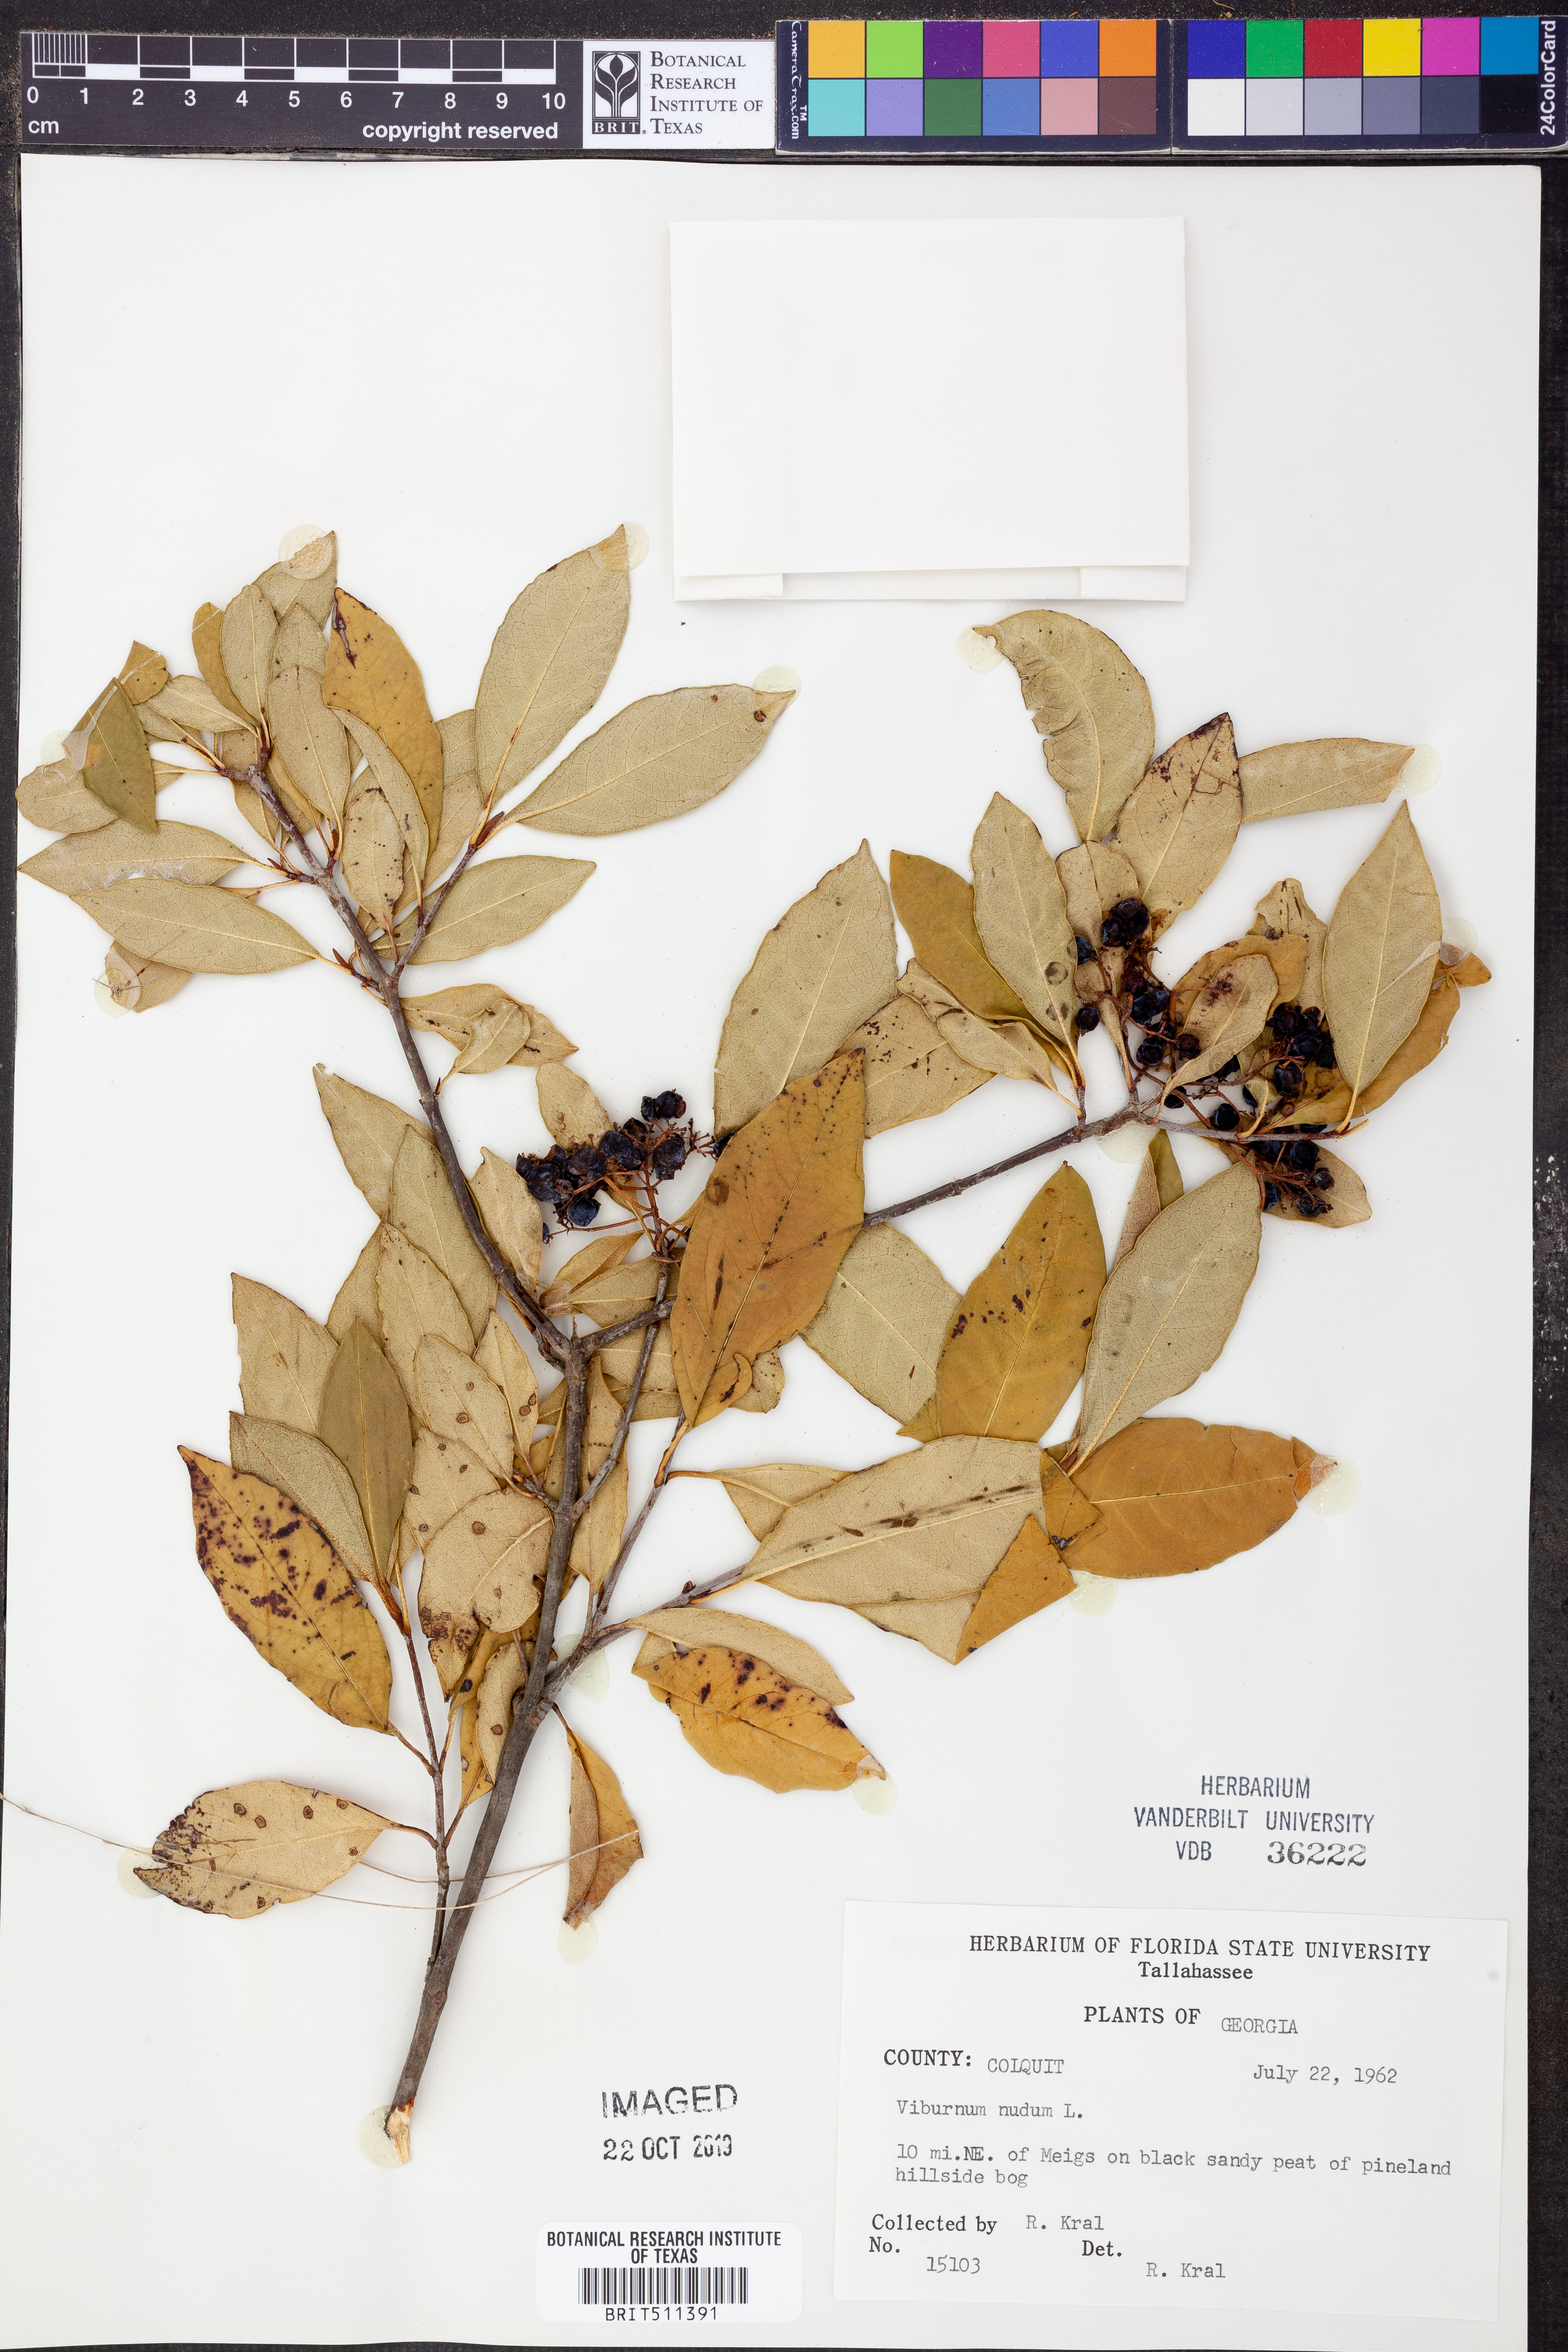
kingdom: Plantae
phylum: Tracheophyta
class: Magnoliopsida
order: Dipsacales
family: Viburnaceae
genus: Viburnum
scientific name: Viburnum nudum
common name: Possum haw
